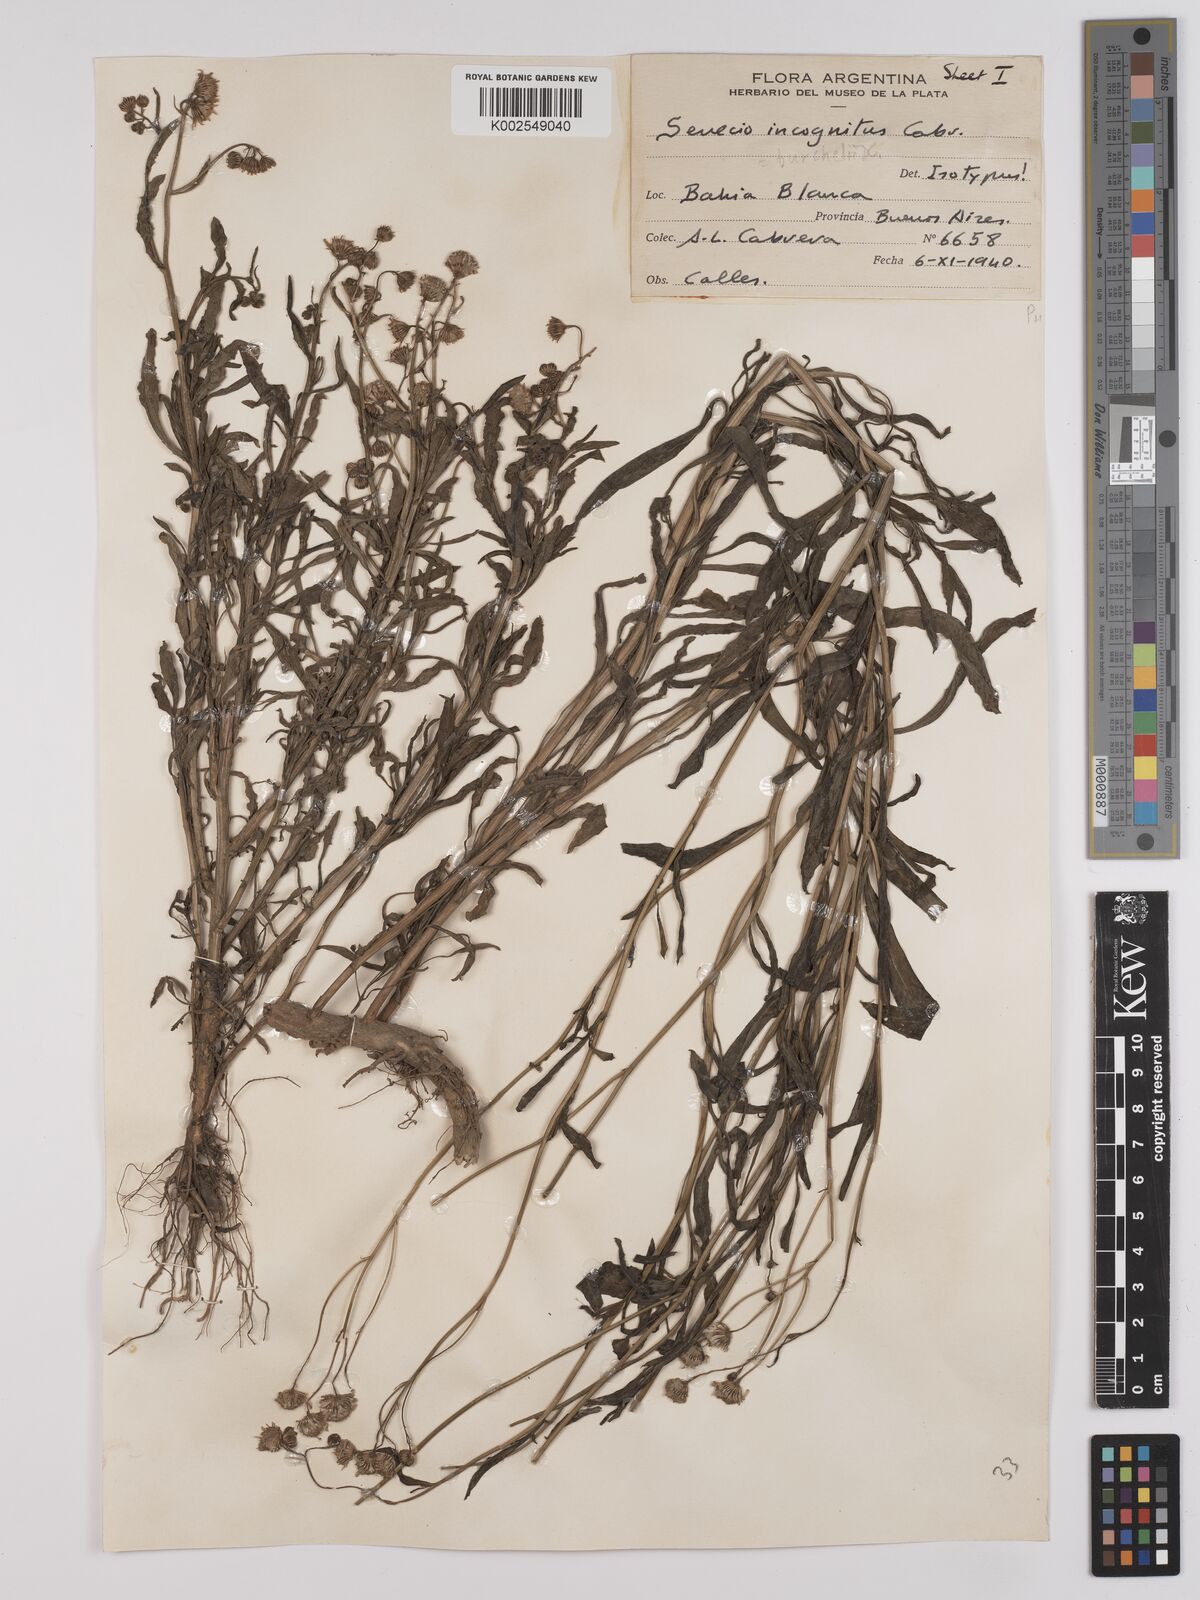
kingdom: Plantae
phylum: Tracheophyta
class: Magnoliopsida
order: Asterales
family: Asteraceae
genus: Senecio
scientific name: Senecio madagascariensis
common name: Madagascar ragwort
